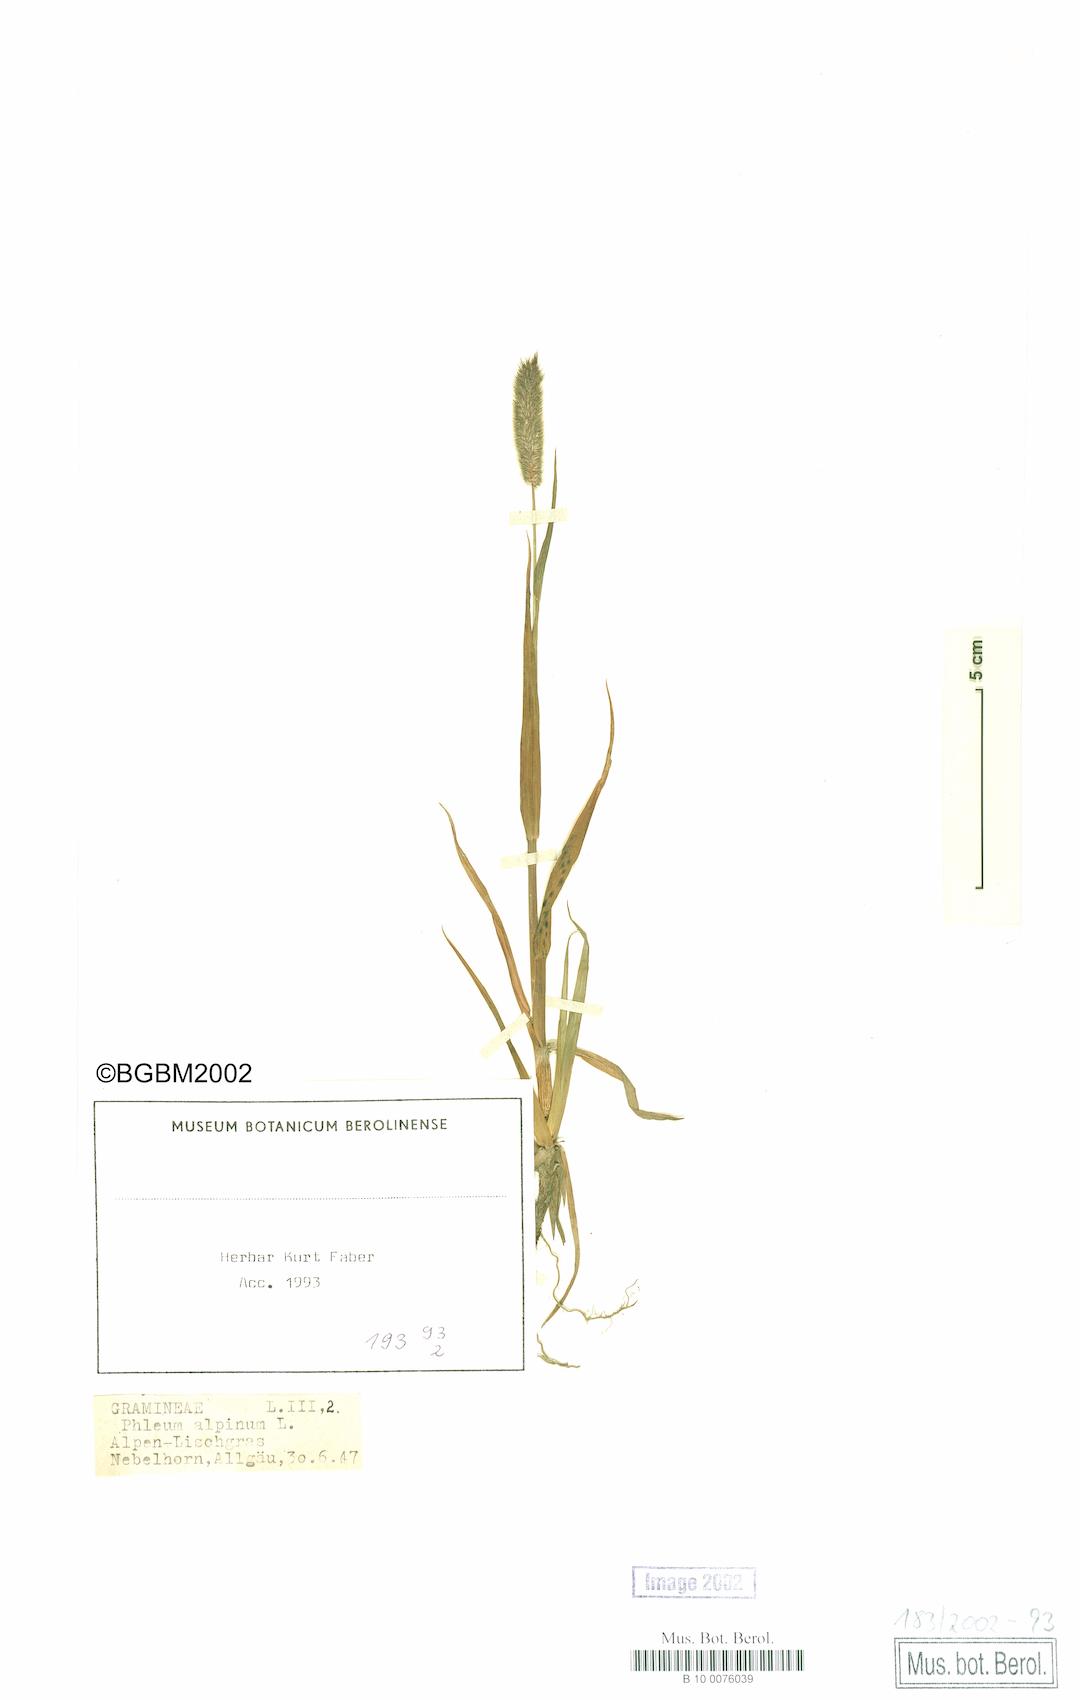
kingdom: Plantae
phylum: Tracheophyta
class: Liliopsida
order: Poales
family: Poaceae
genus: Phleum
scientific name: Phleum alpinum
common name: Alpine cat's-tail
